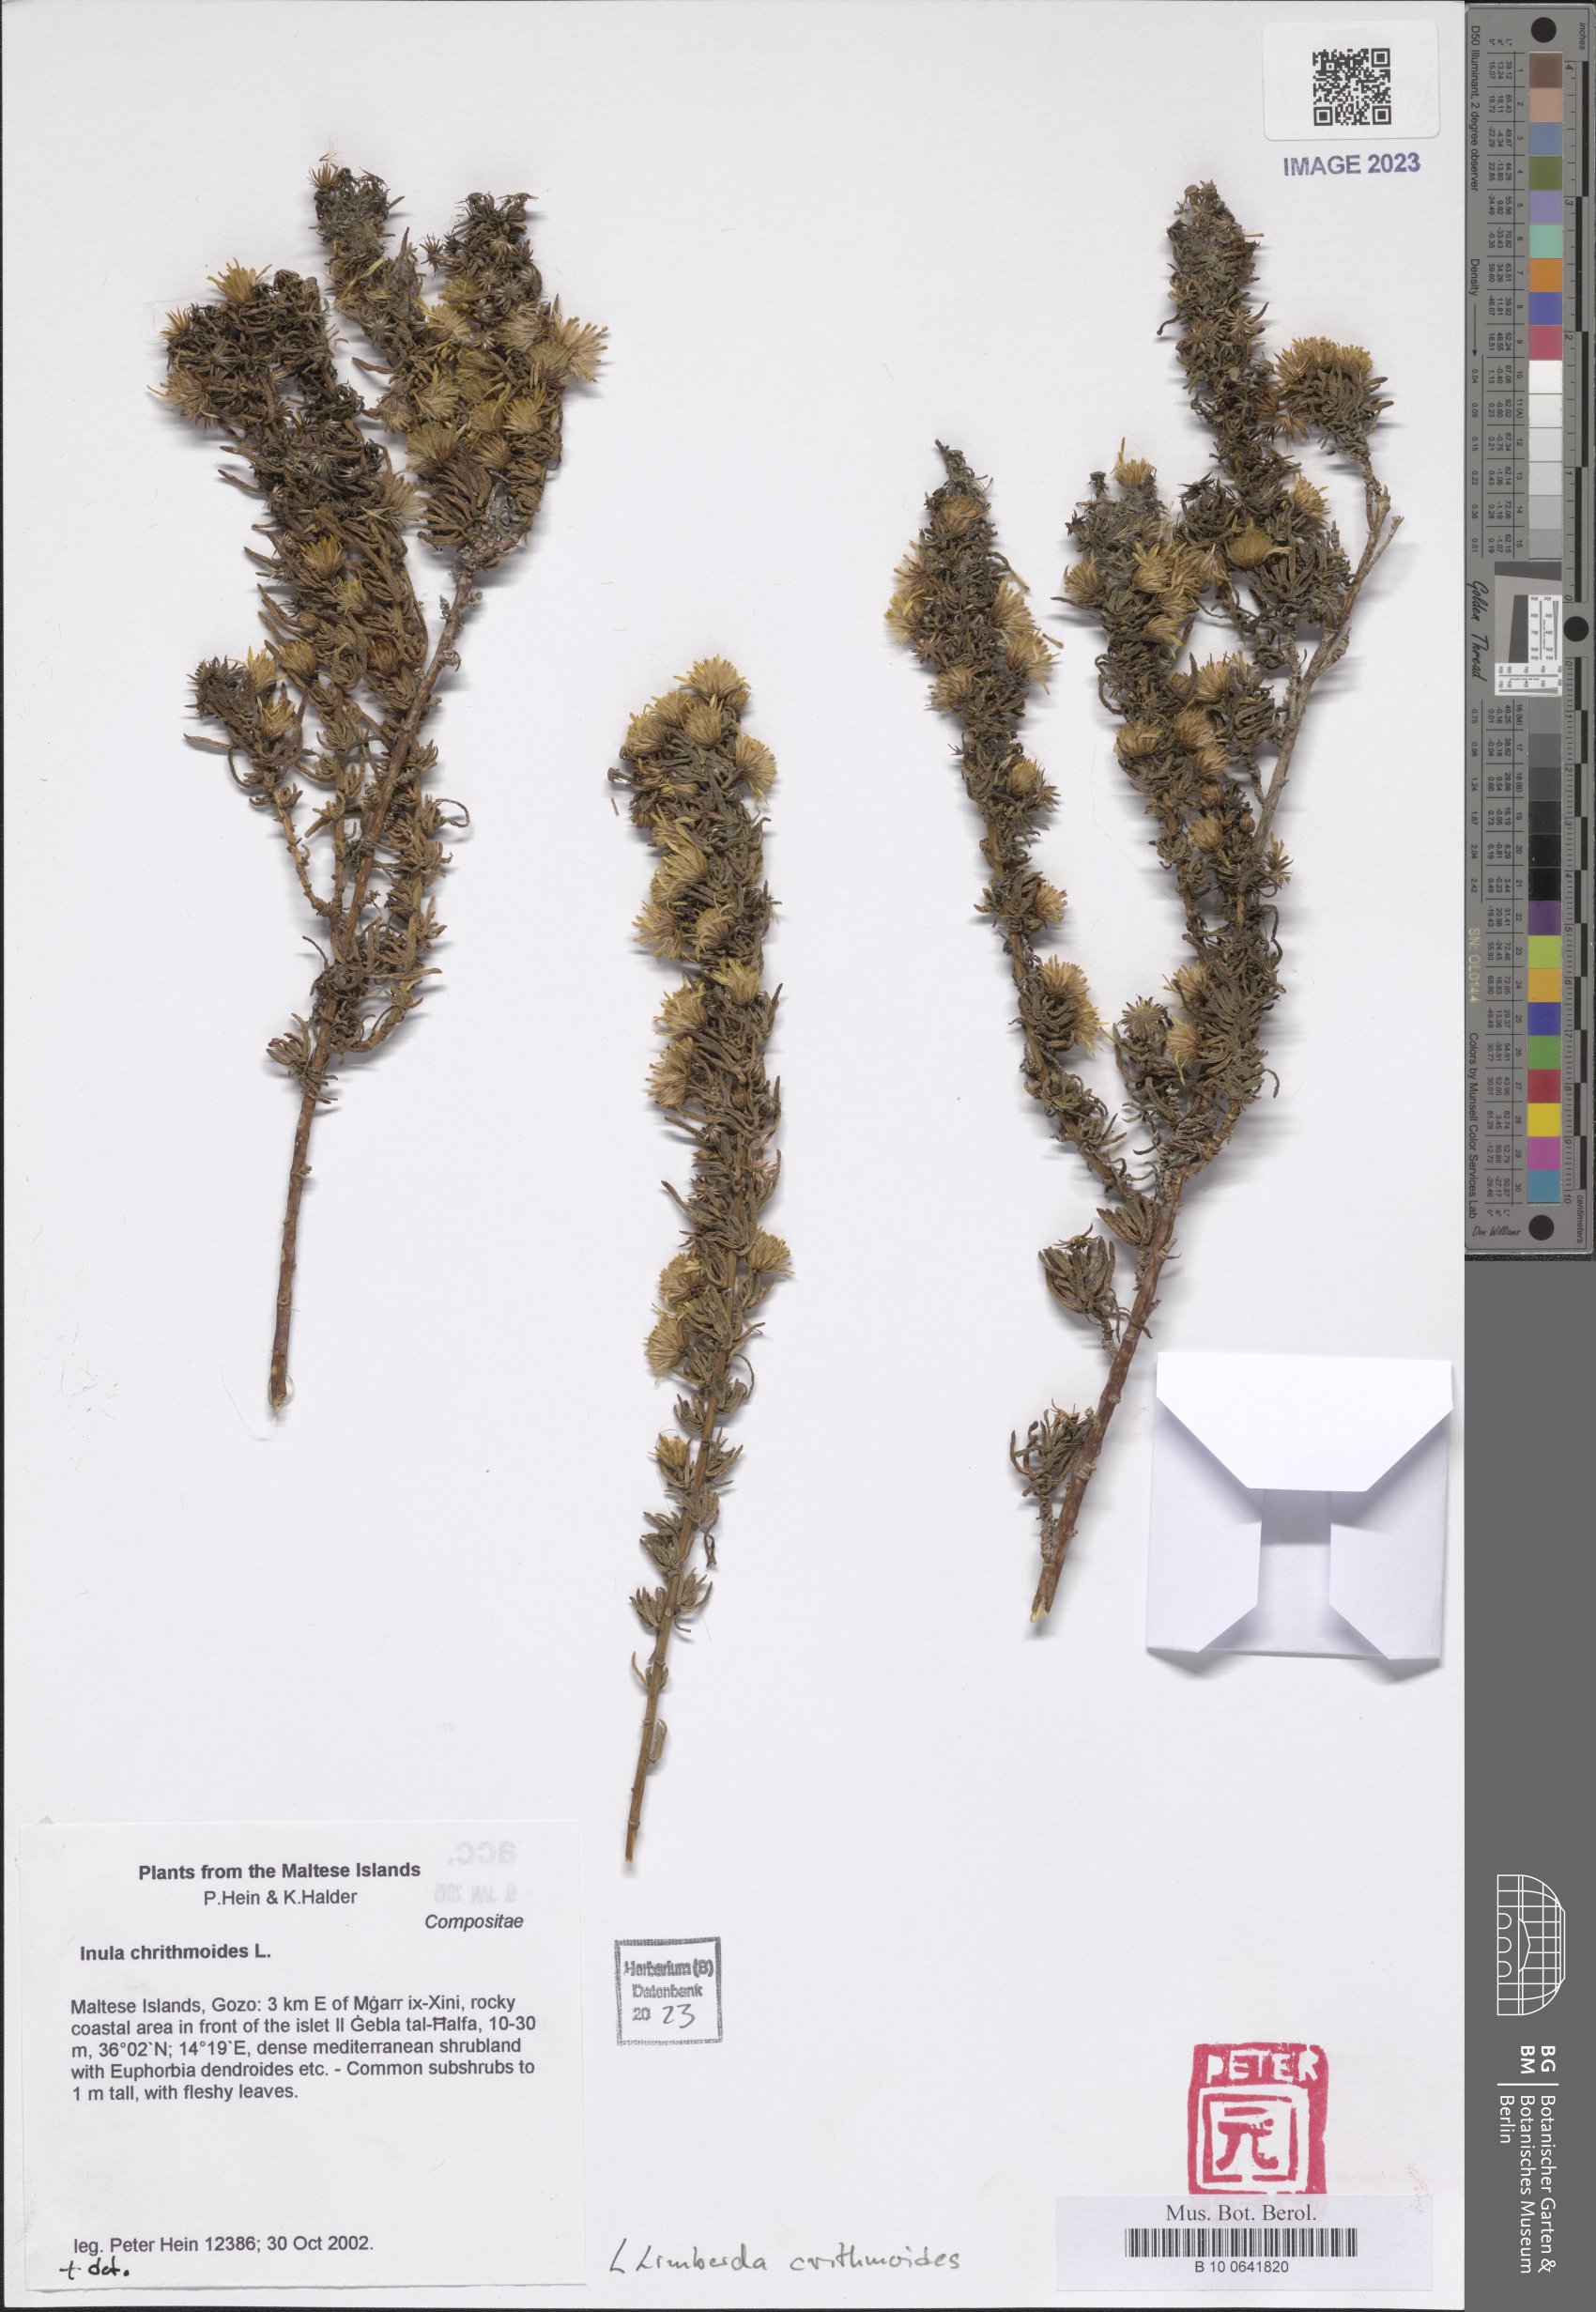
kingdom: Plantae
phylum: Tracheophyta
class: Magnoliopsida
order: Asterales
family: Asteraceae
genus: Limbarda
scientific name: Limbarda crithmoides
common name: Golden samphire
